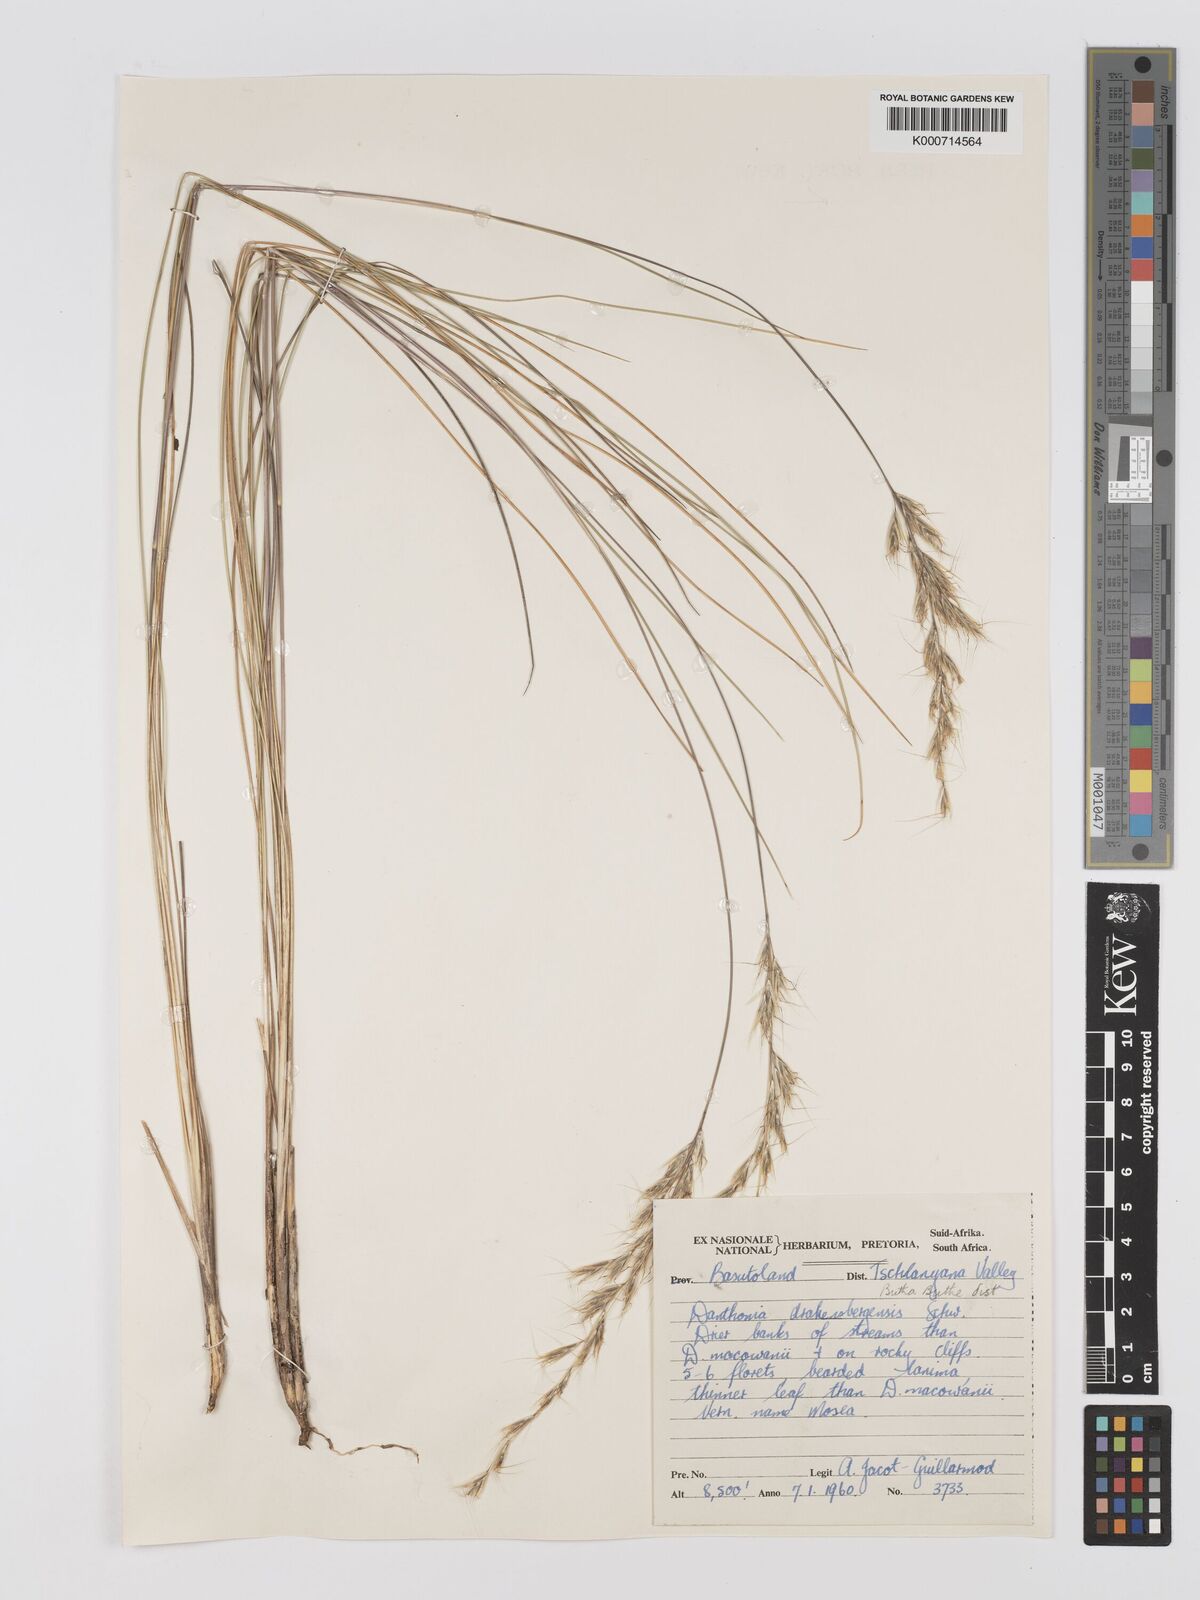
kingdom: Plantae
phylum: Tracheophyta
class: Liliopsida
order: Poales
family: Poaceae
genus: Rytidosperma
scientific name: Rytidosperma
